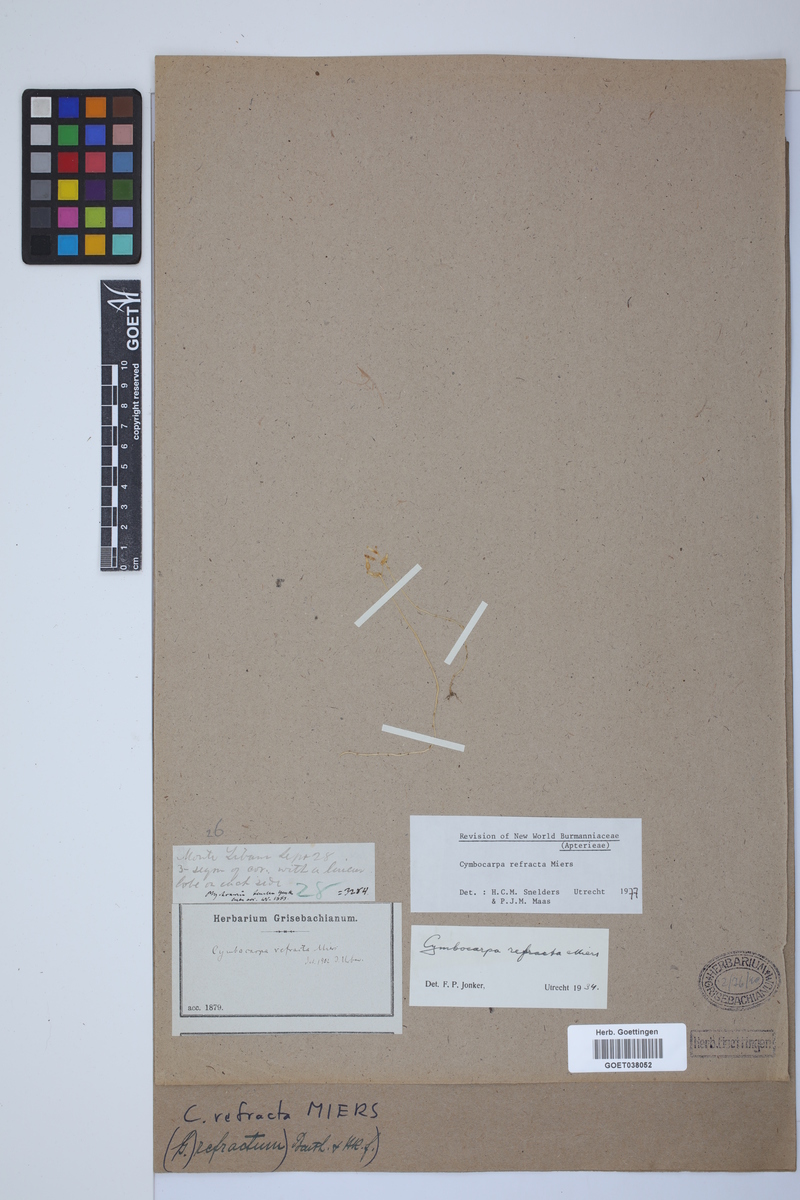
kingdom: Plantae
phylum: Tracheophyta
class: Liliopsida
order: Dioscoreales
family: Burmanniaceae
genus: Gymnosiphon
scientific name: Gymnosiphon refractus
